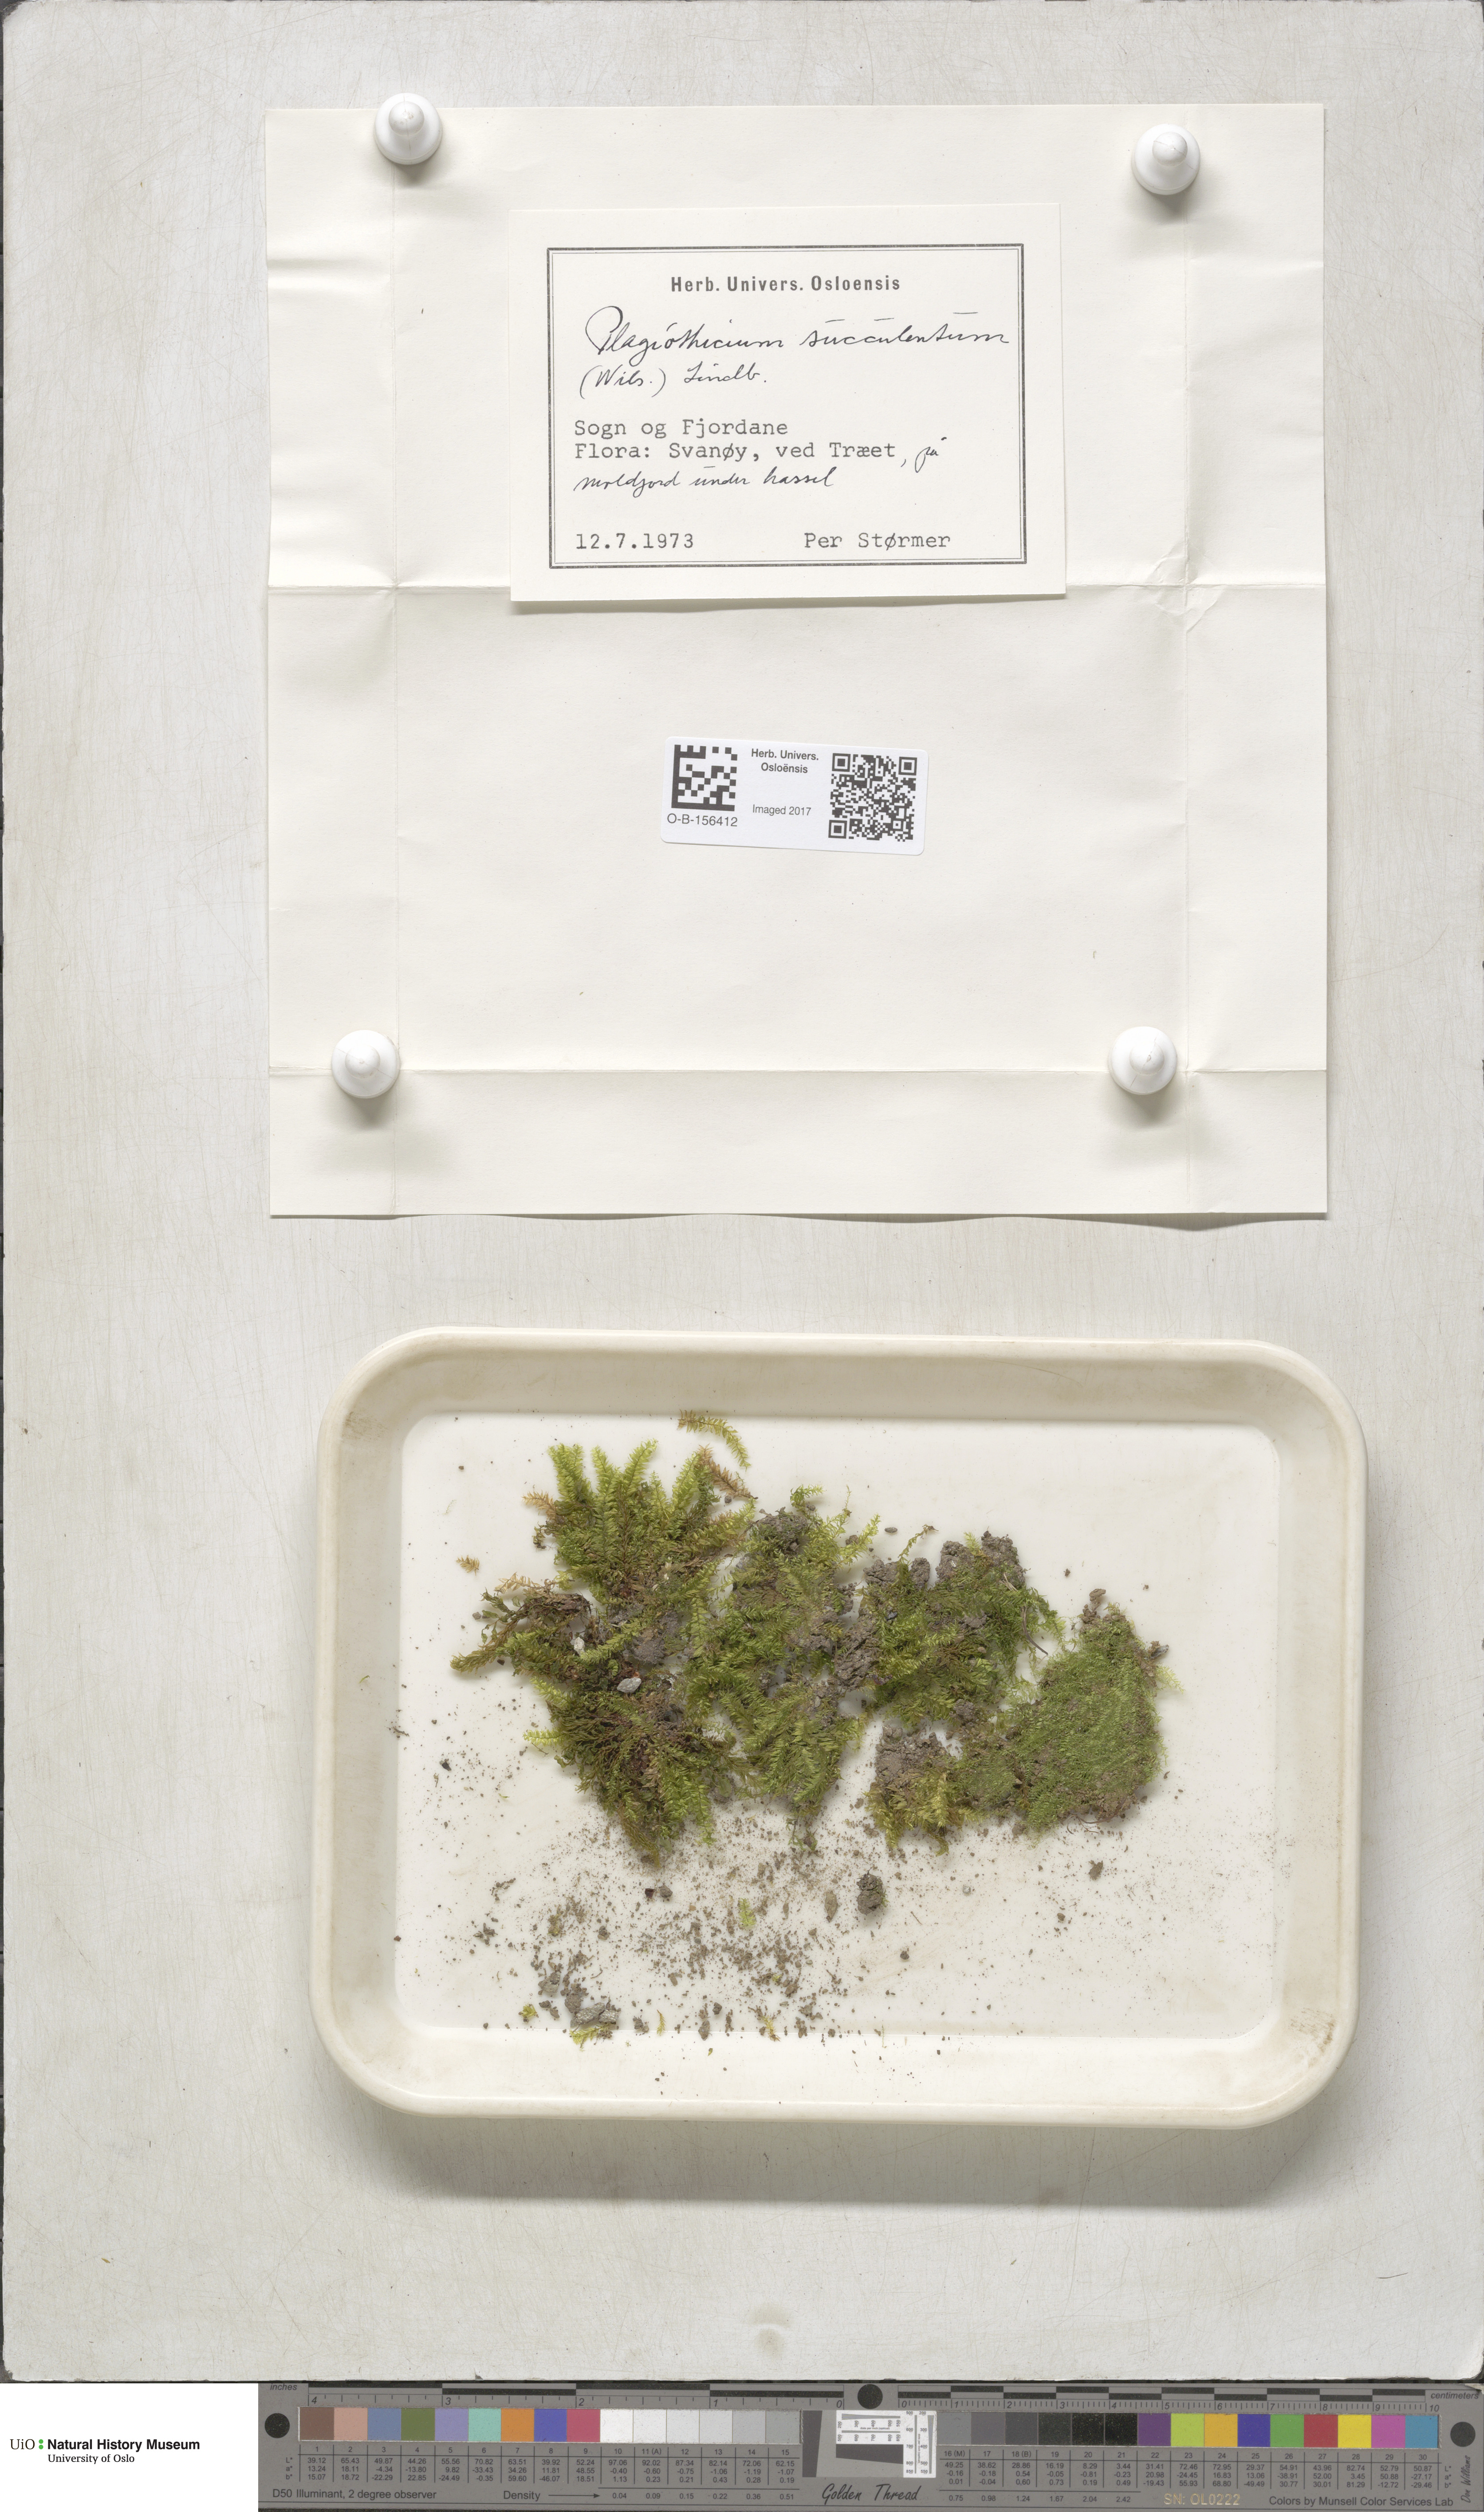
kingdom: Plantae
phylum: Bryophyta
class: Bryopsida
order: Hypnales
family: Plagiotheciaceae
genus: Plagiothecium
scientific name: Plagiothecium nemorale
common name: Woodsy silk-moss
